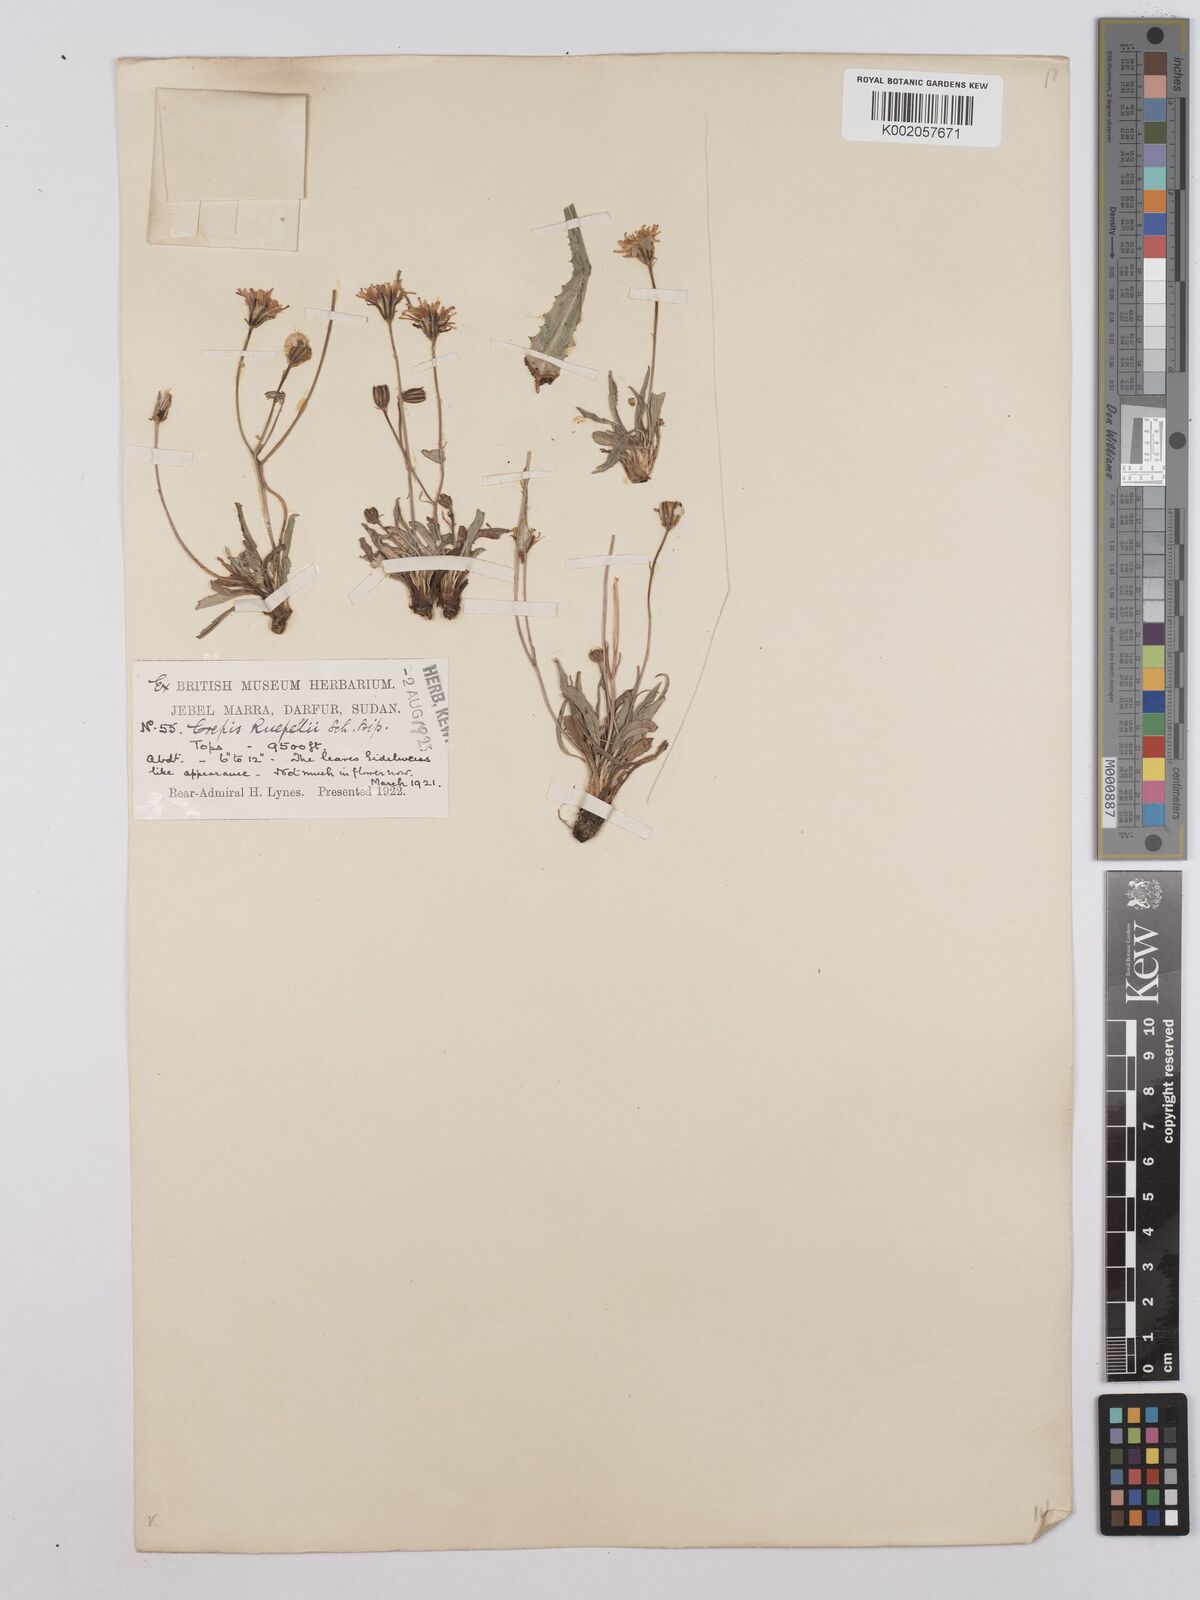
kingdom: Plantae
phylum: Tracheophyta
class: Magnoliopsida
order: Asterales
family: Asteraceae
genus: Crepis
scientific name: Crepis rueppellii
